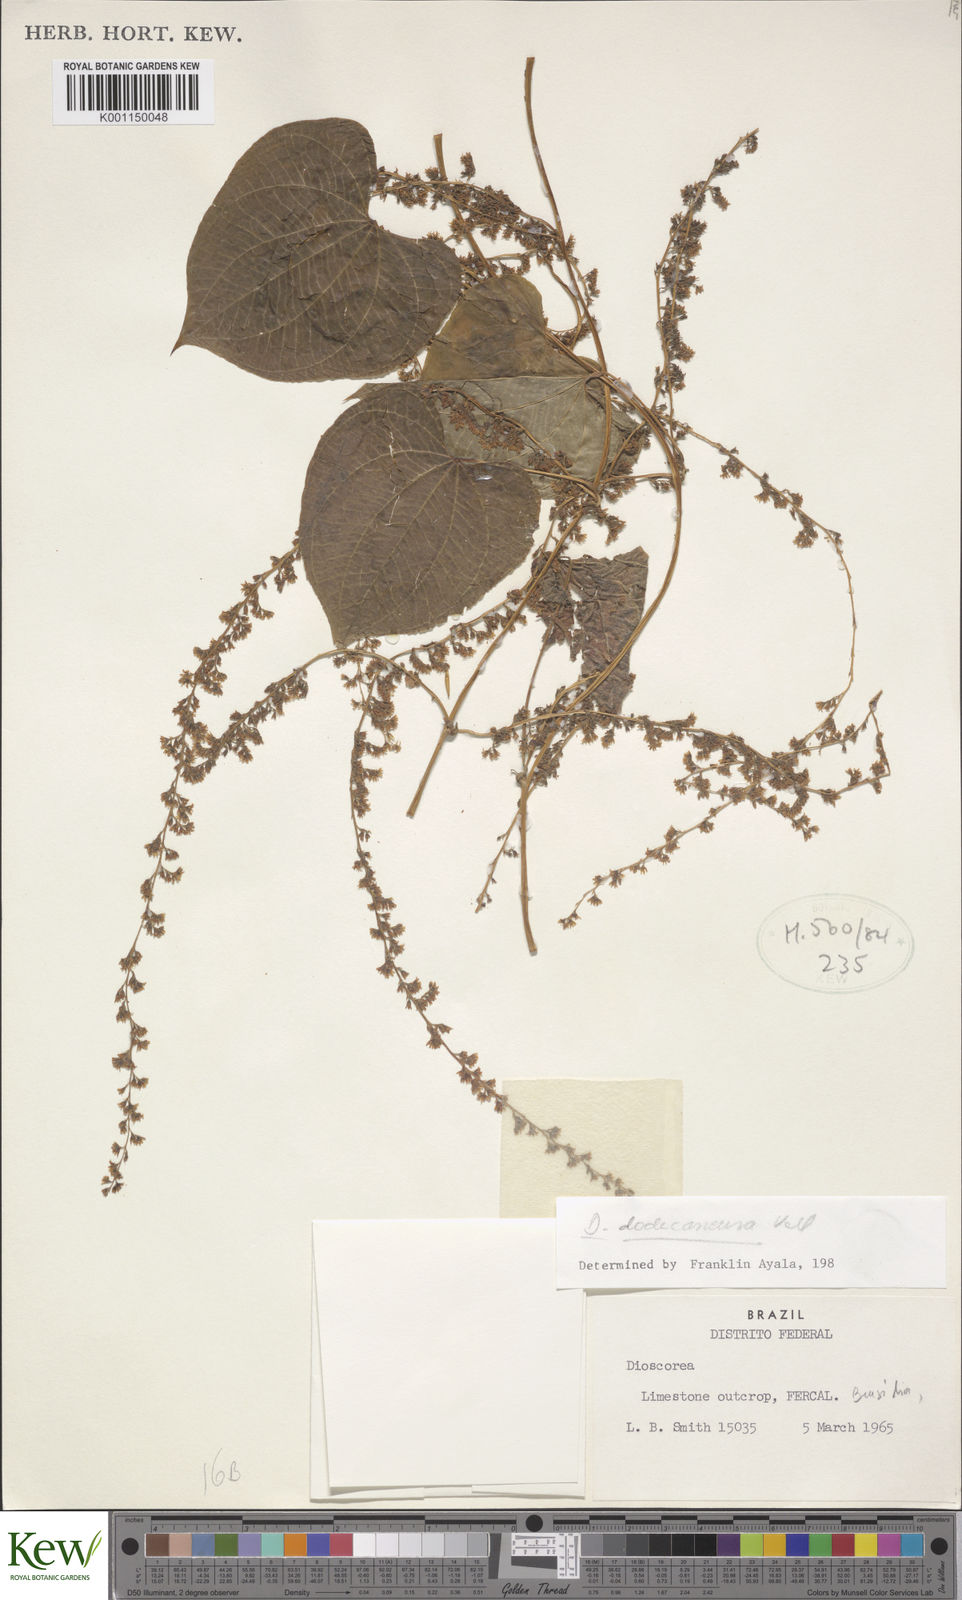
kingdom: Plantae
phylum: Tracheophyta
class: Liliopsida
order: Dioscoreales
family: Dioscoreaceae
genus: Dioscorea
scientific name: Dioscorea dodecaneura
